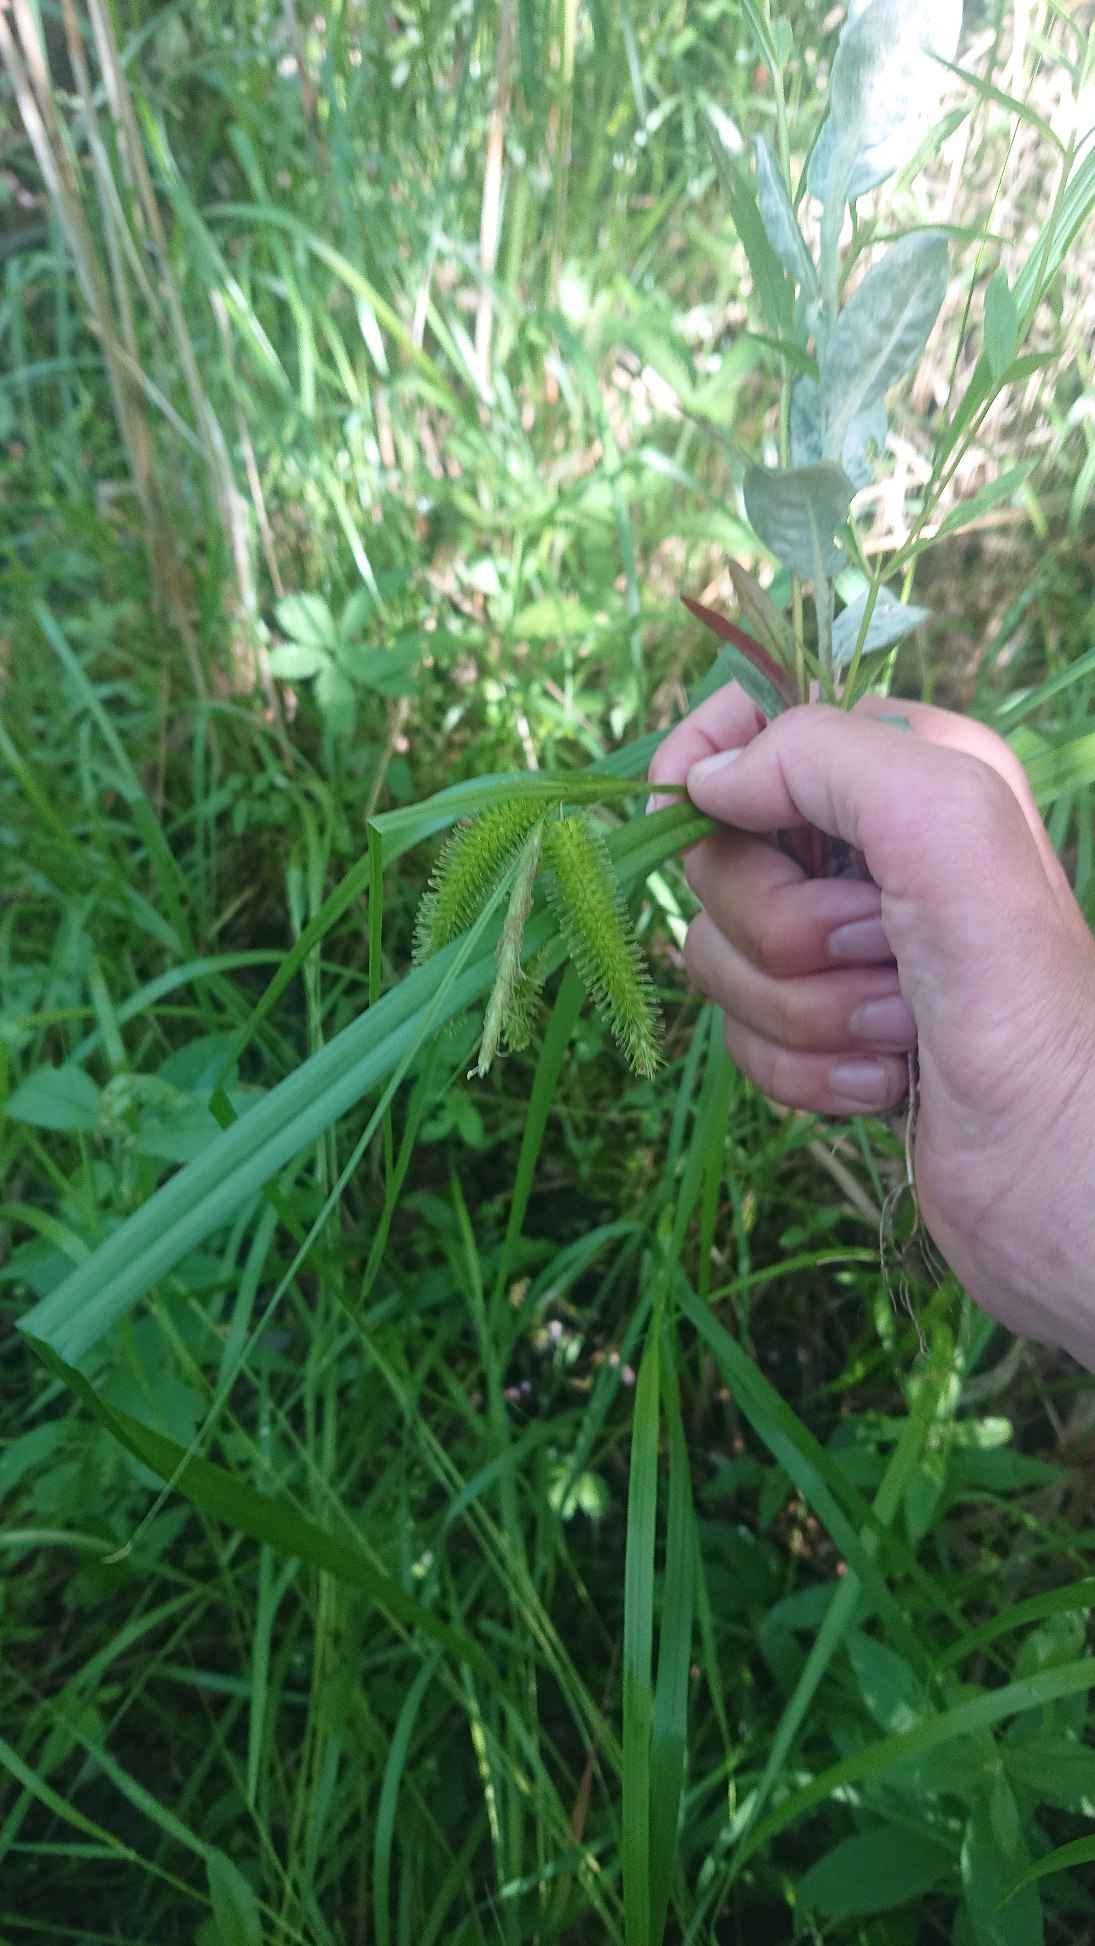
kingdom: Plantae
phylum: Tracheophyta
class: Liliopsida
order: Poales
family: Cyperaceae
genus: Carex
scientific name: Carex pseudocyperus
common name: Knippe-star
